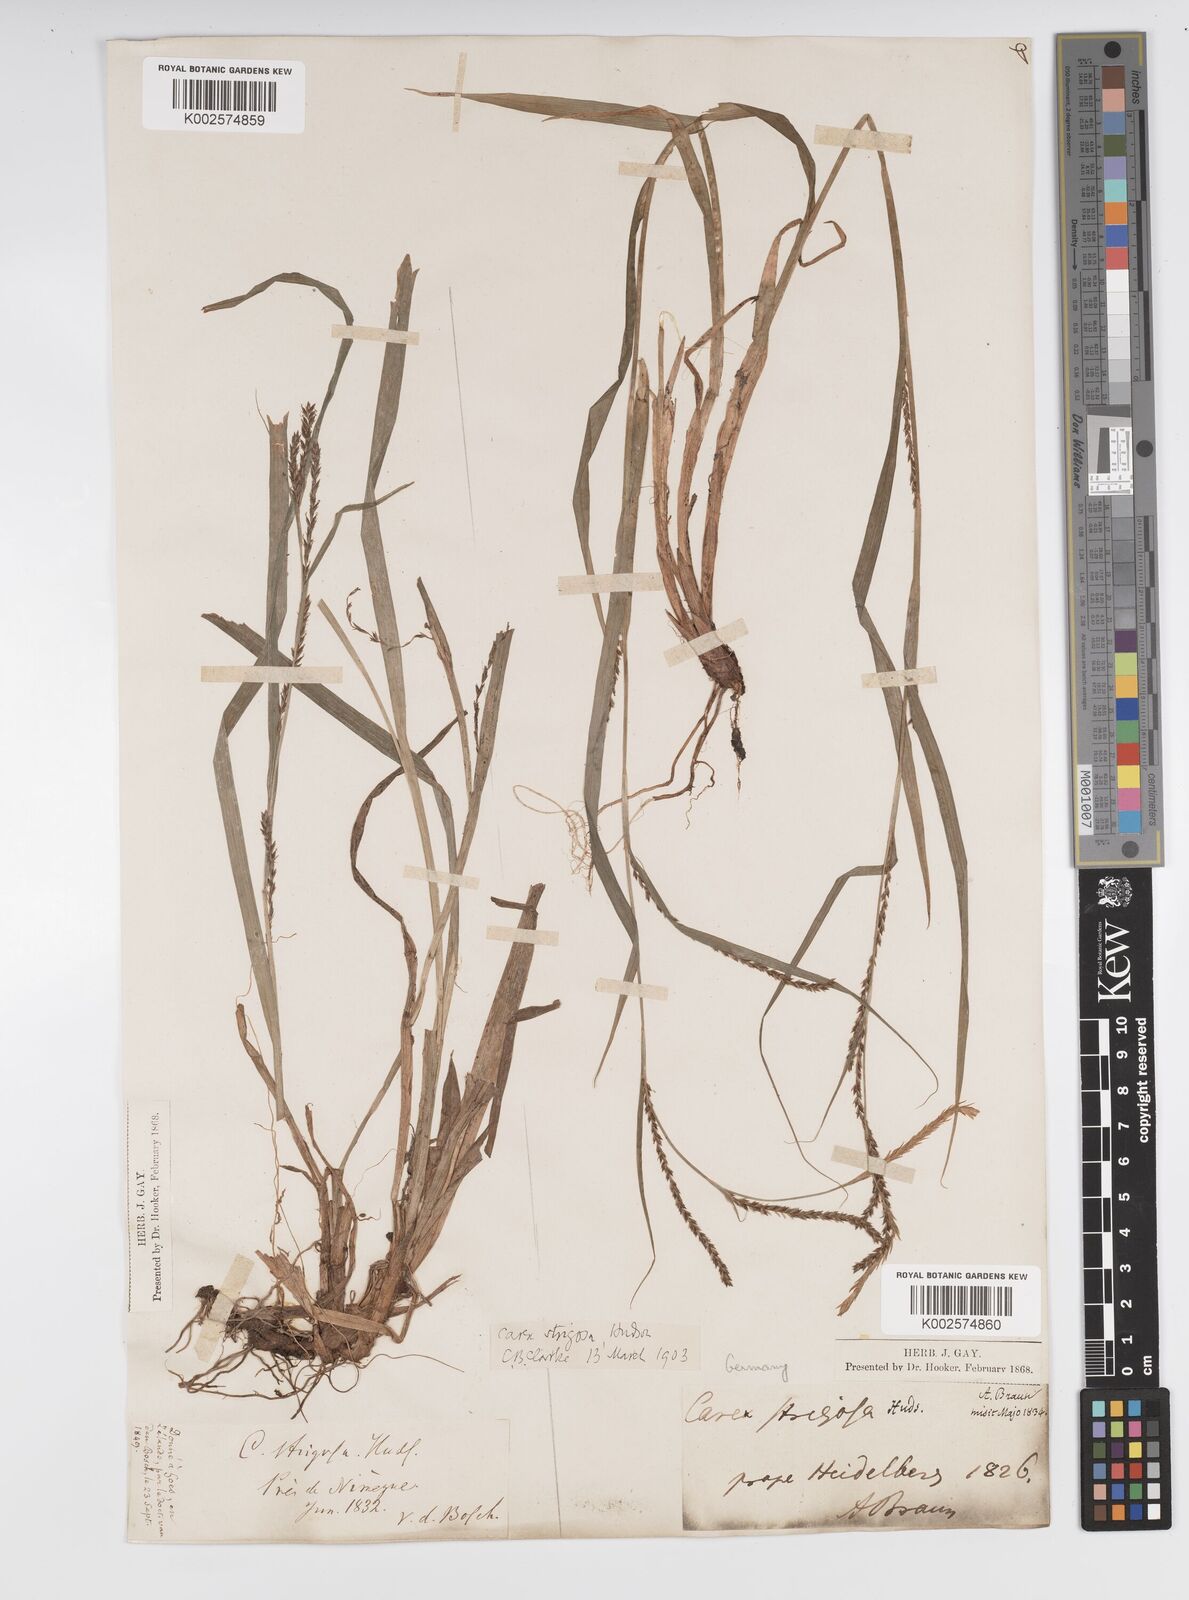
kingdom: Plantae
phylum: Tracheophyta
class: Liliopsida
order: Poales
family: Cyperaceae
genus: Carex
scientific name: Carex strigosa
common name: Thin-spiked wood-sedge
